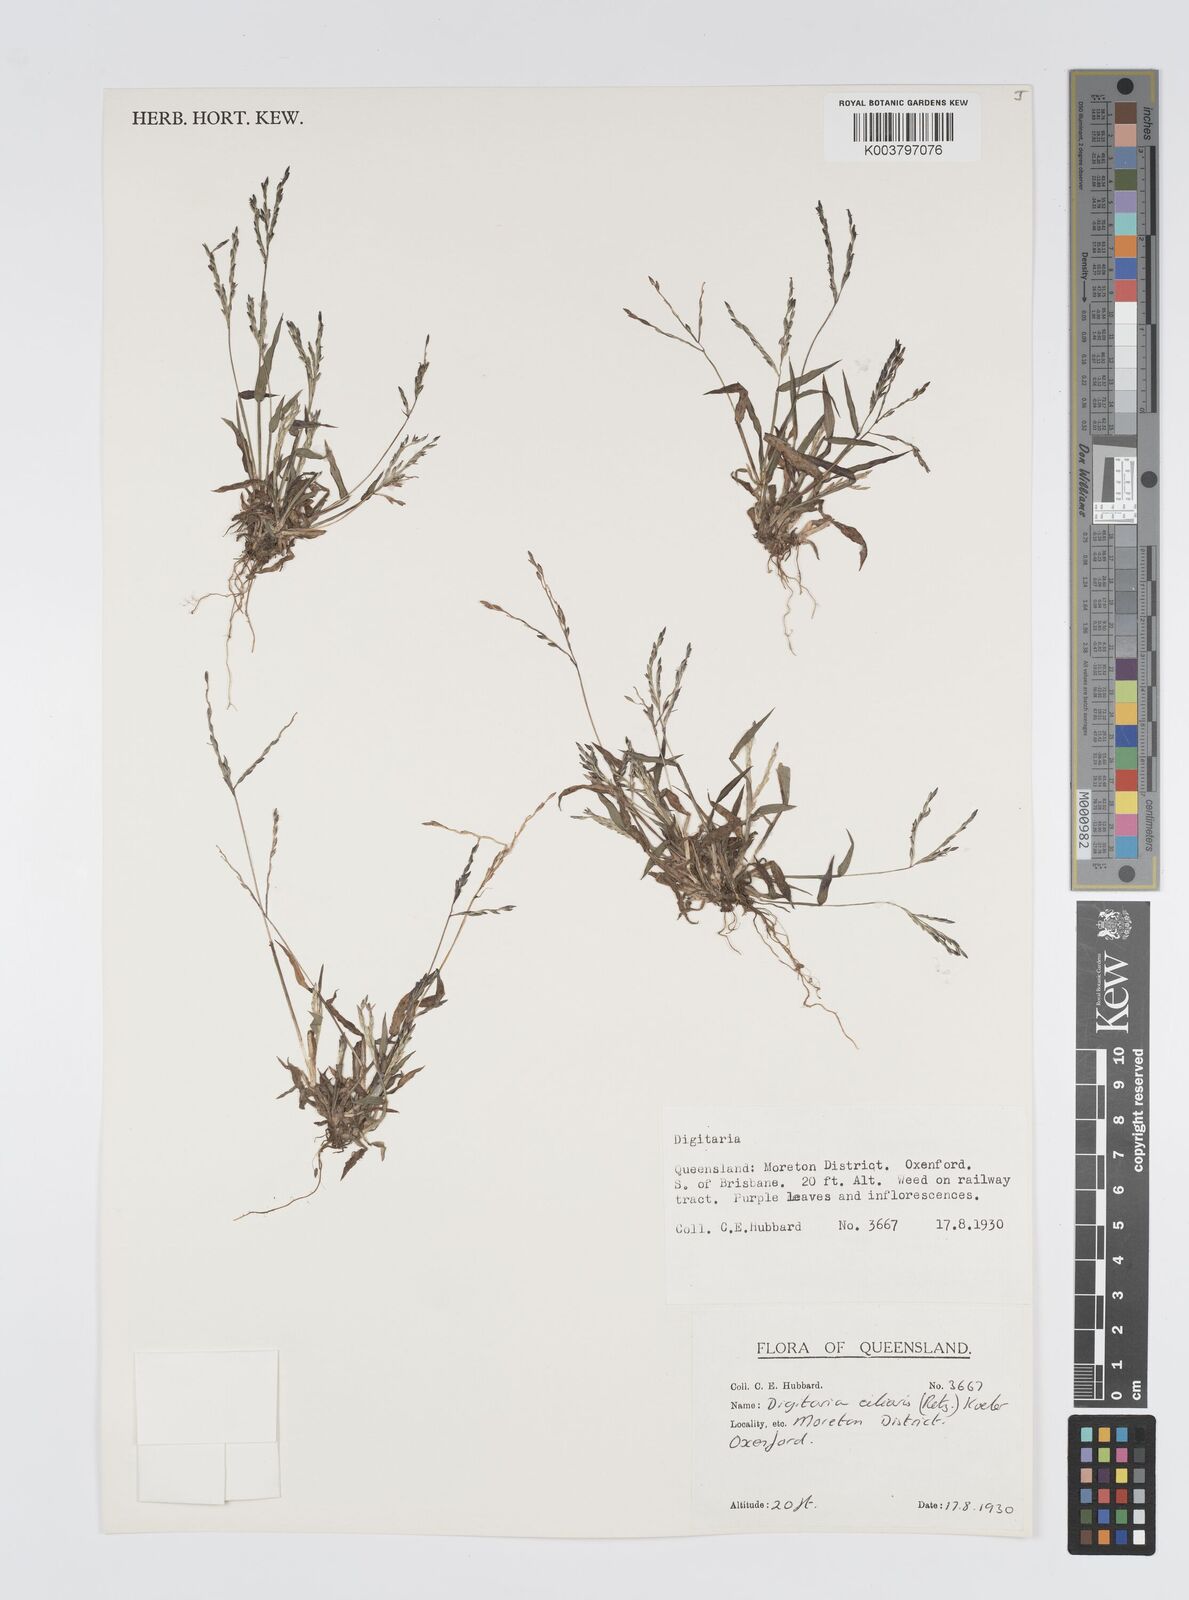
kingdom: Plantae
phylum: Tracheophyta
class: Liliopsida
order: Poales
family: Poaceae
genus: Digitaria
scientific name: Digitaria ciliaris
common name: Tropical finger-grass
